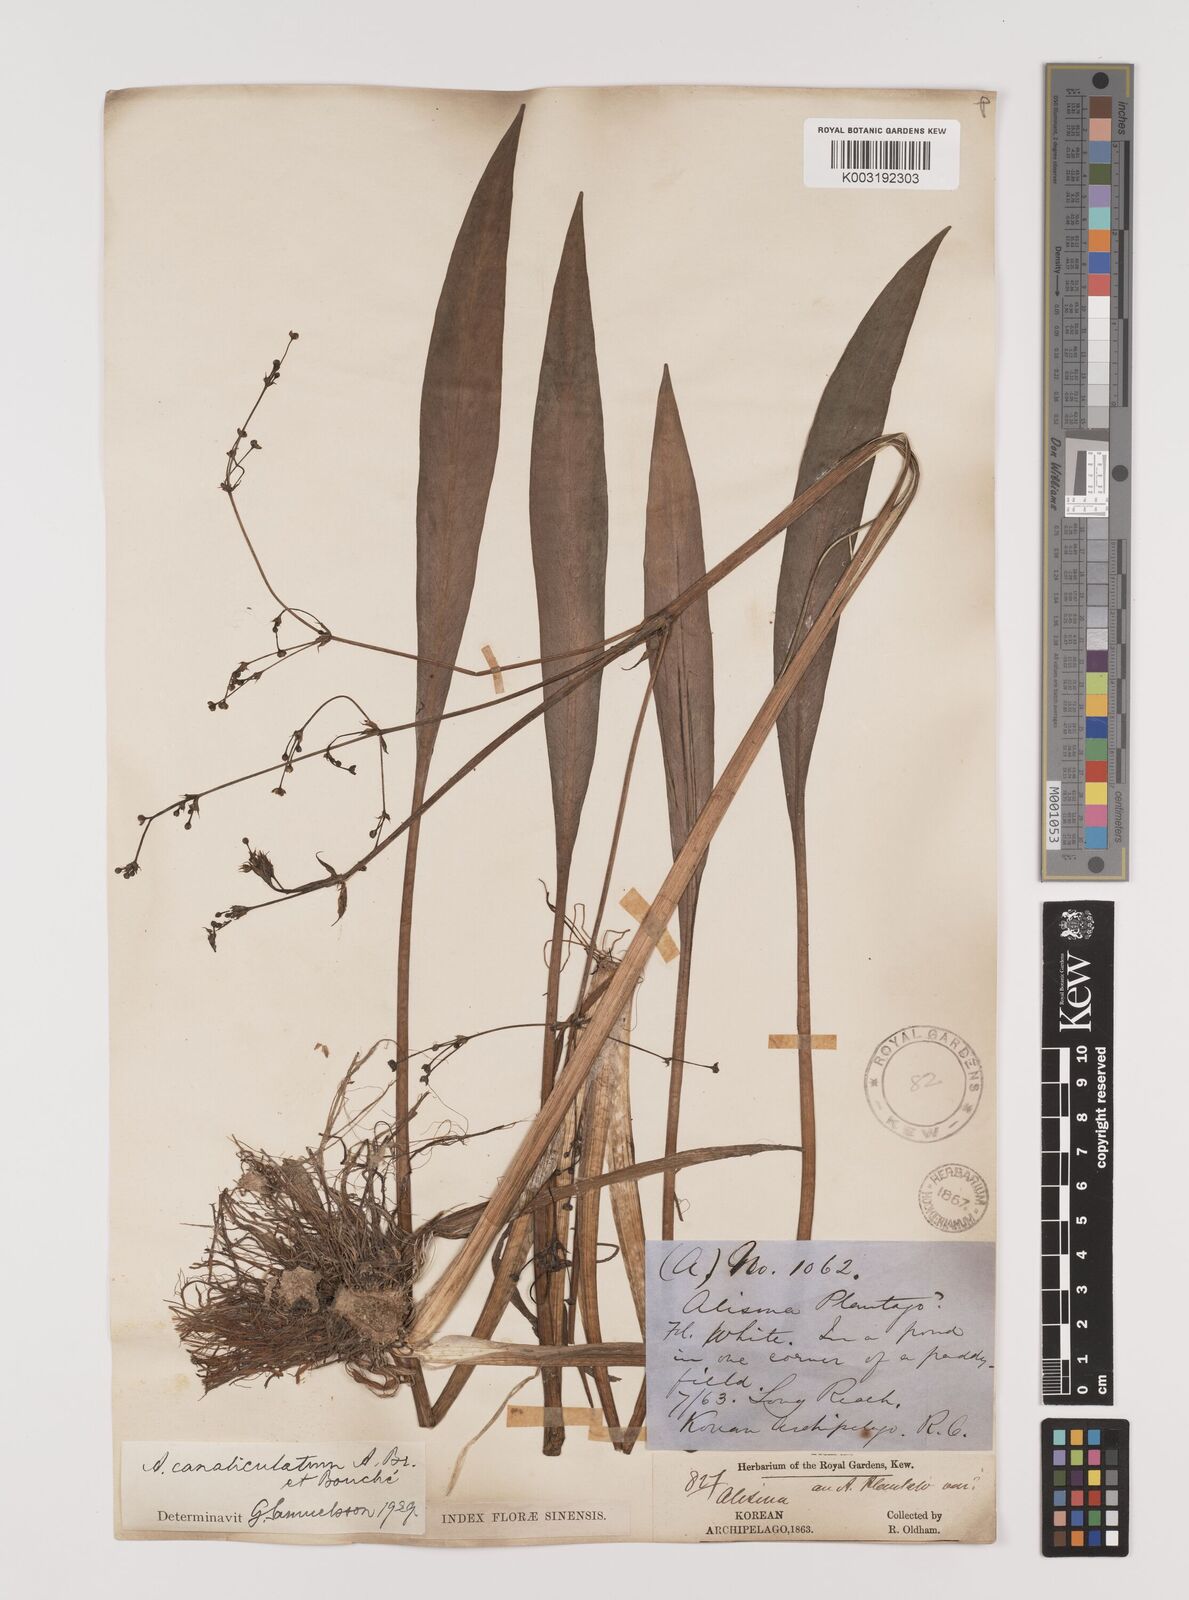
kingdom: Plantae
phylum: Tracheophyta
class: Liliopsida
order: Alismatales
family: Alismataceae
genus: Alisma
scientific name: Alisma canaliculatum
